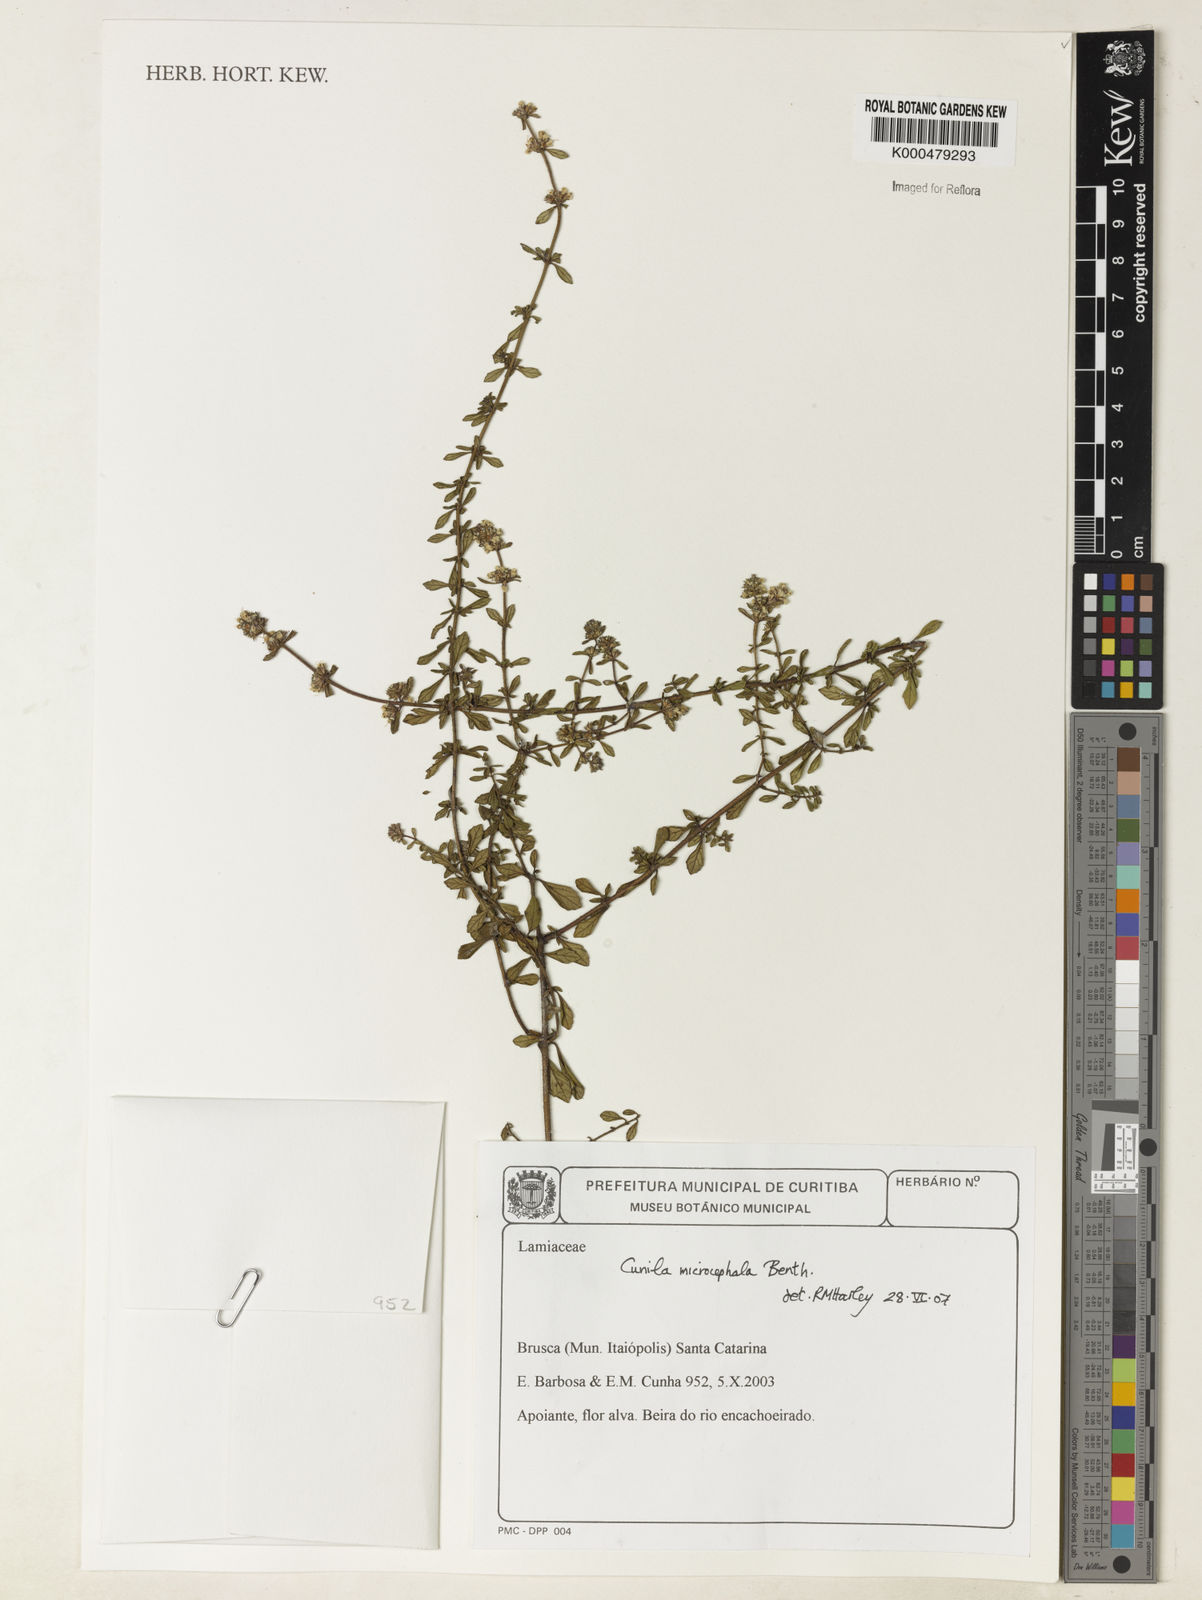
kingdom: Plantae
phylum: Tracheophyta
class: Magnoliopsida
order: Lamiales
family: Lamiaceae
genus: Cunila
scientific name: Cunila microcephala
